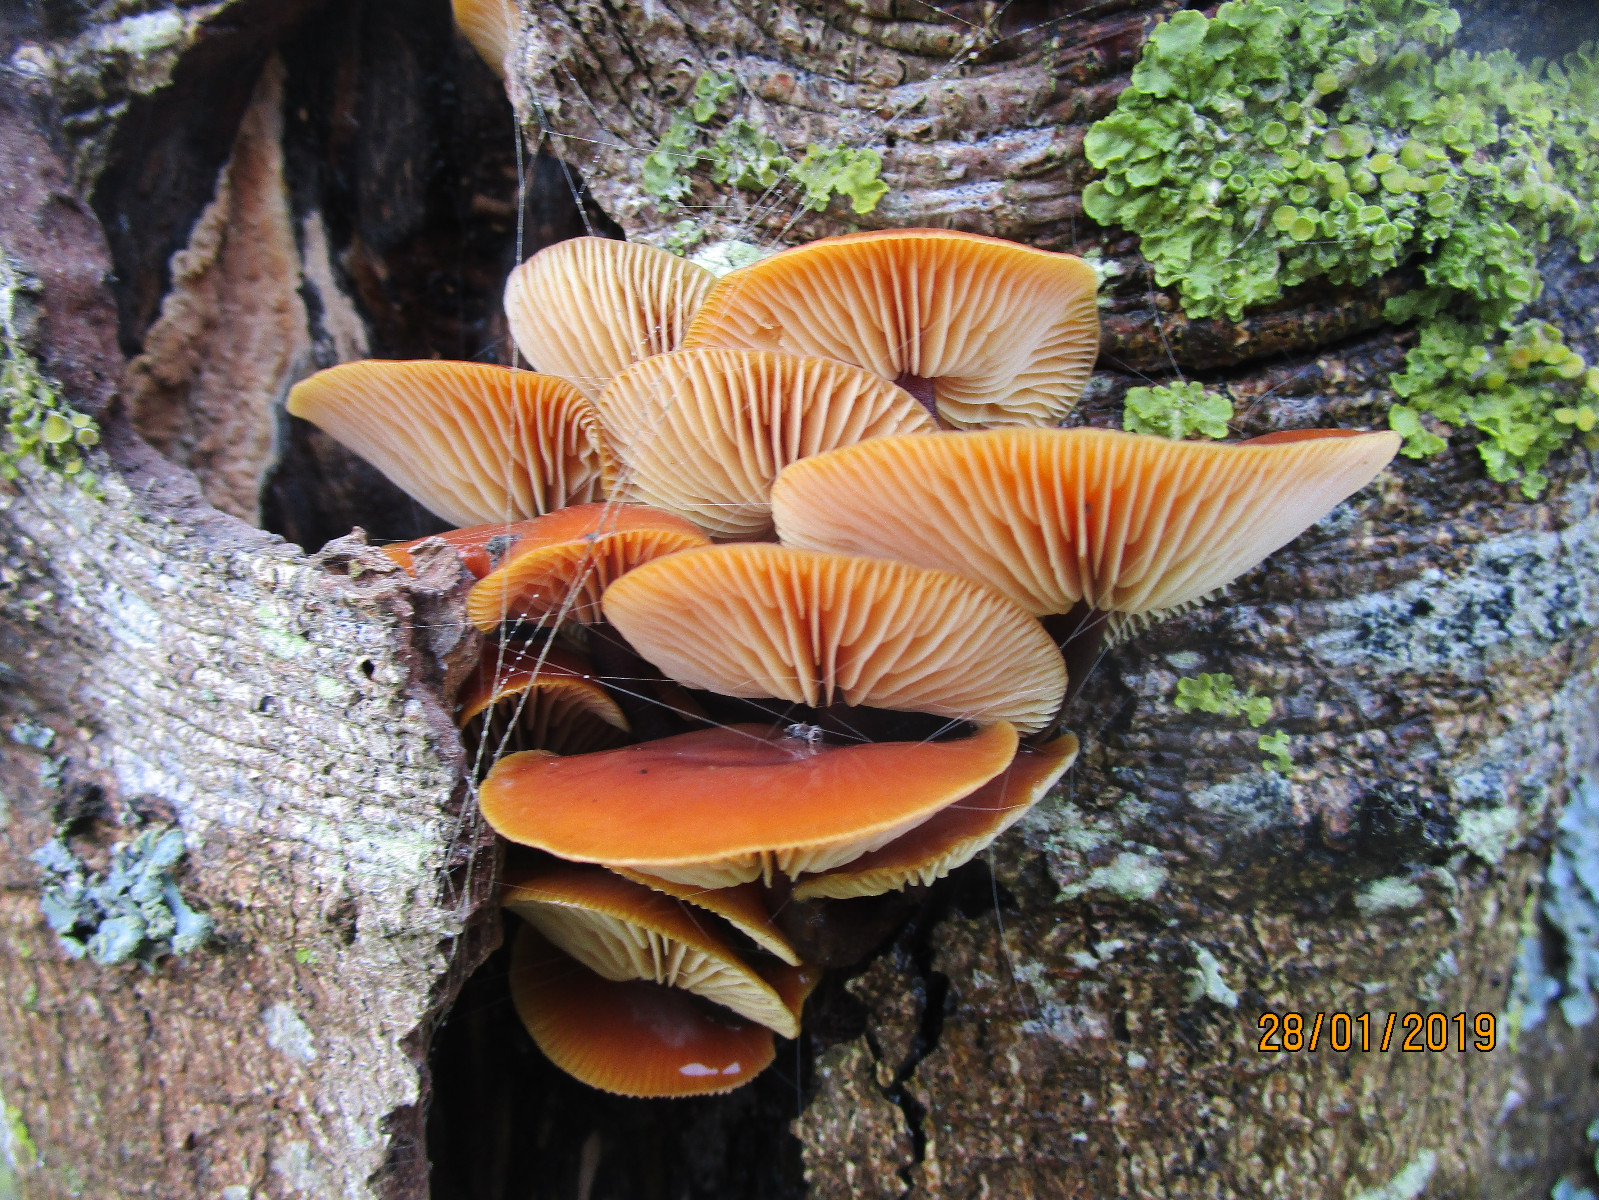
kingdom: Fungi
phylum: Basidiomycota
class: Agaricomycetes
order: Agaricales
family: Physalacriaceae
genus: Flammulina
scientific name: Flammulina velutipes
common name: gul fløjlsfod
